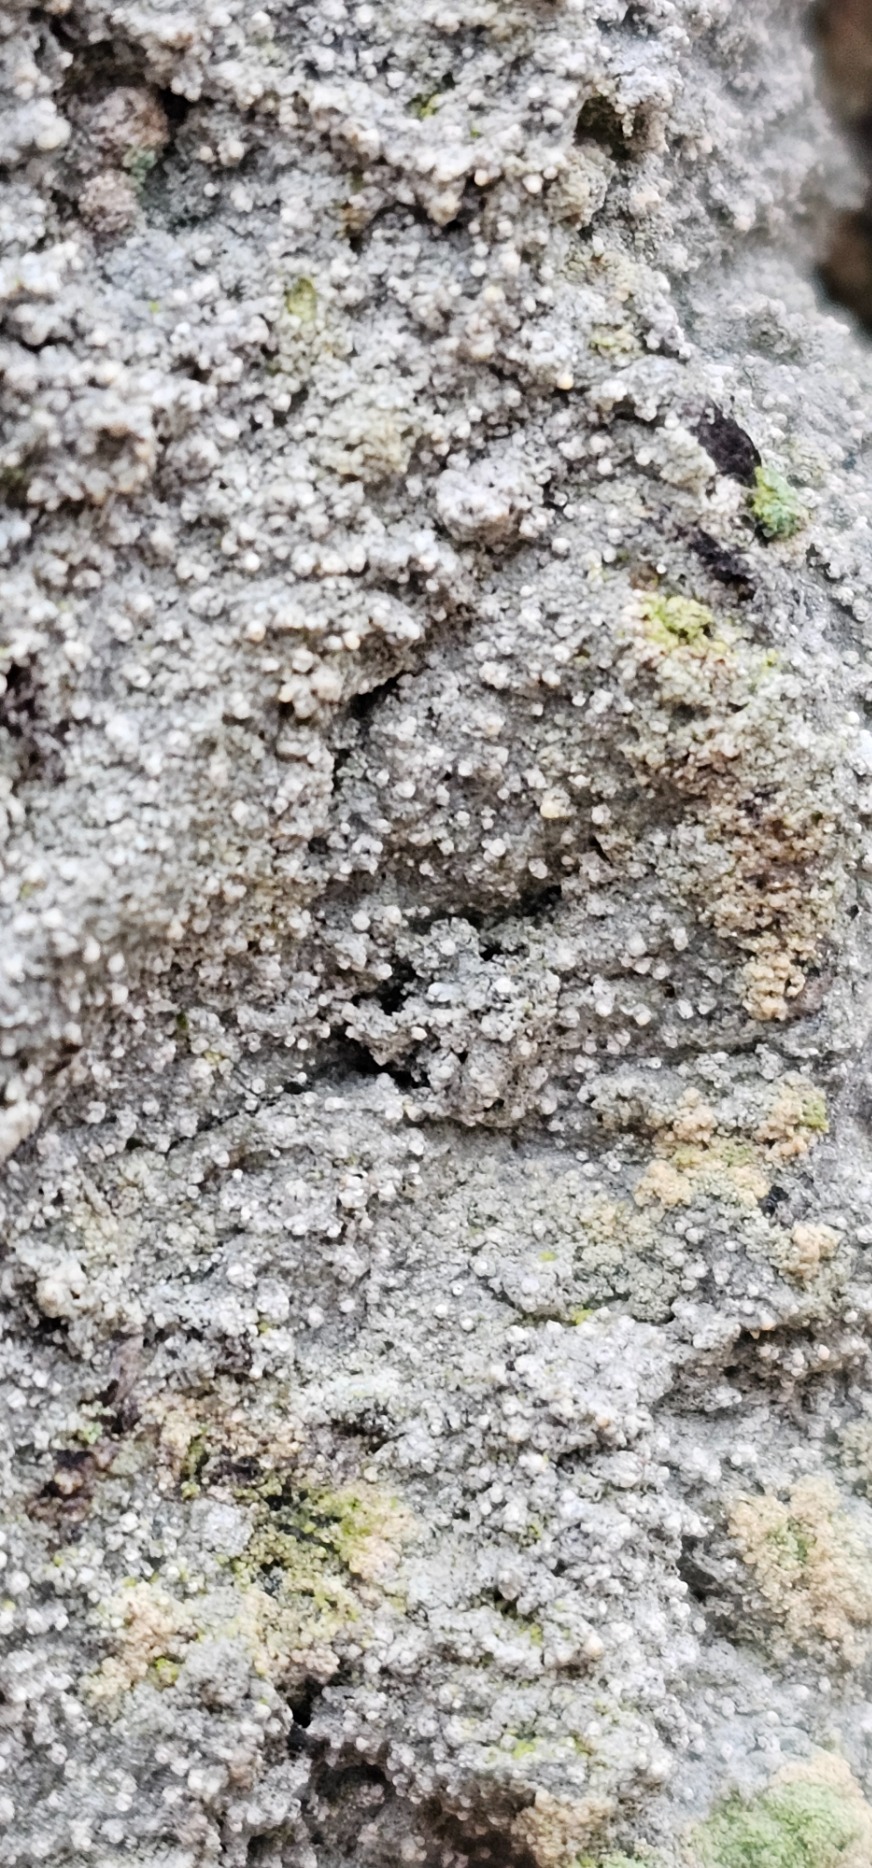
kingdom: Fungi
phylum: Ascomycota
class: Arthoniomycetes
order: Arthoniales
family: Roccellaceae
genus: Lecanactis
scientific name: Lecanactis abietina
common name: Grå dugskivelav
